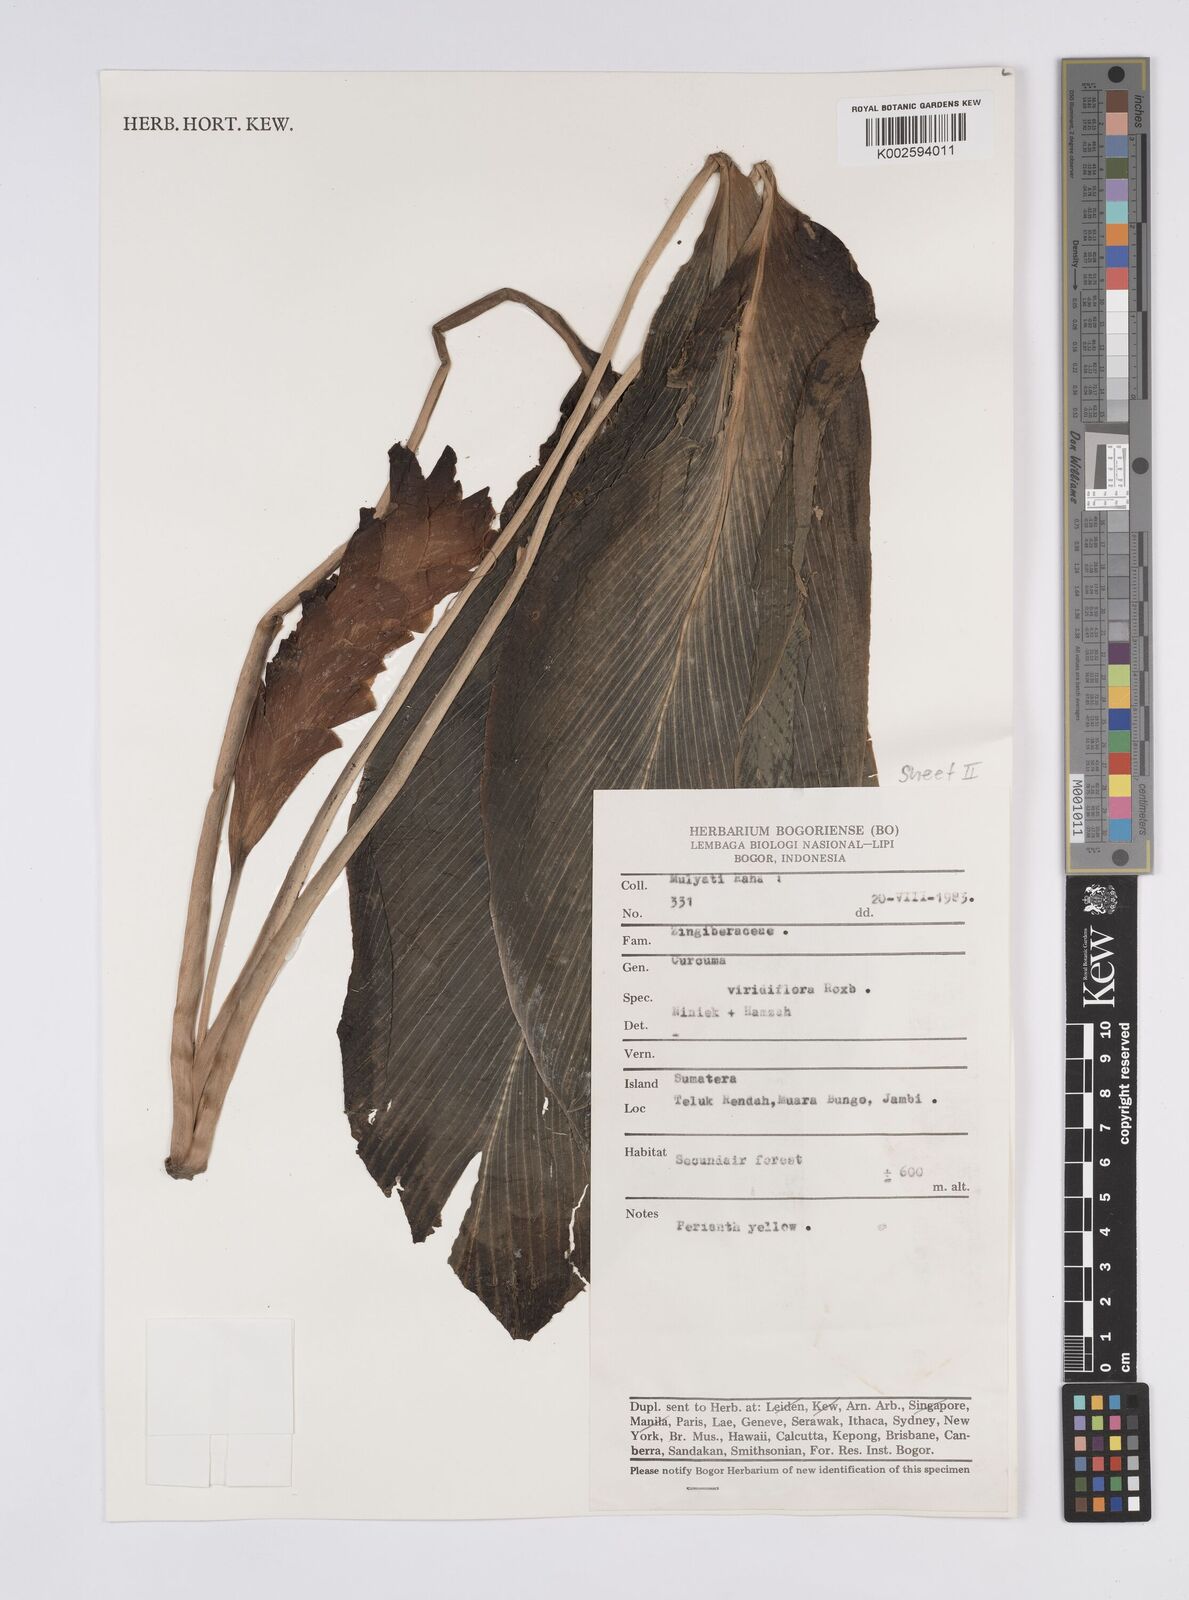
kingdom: Plantae
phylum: Tracheophyta
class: Liliopsida
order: Zingiberales
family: Zingiberaceae
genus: Curcuma
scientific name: Curcuma viridiflora
